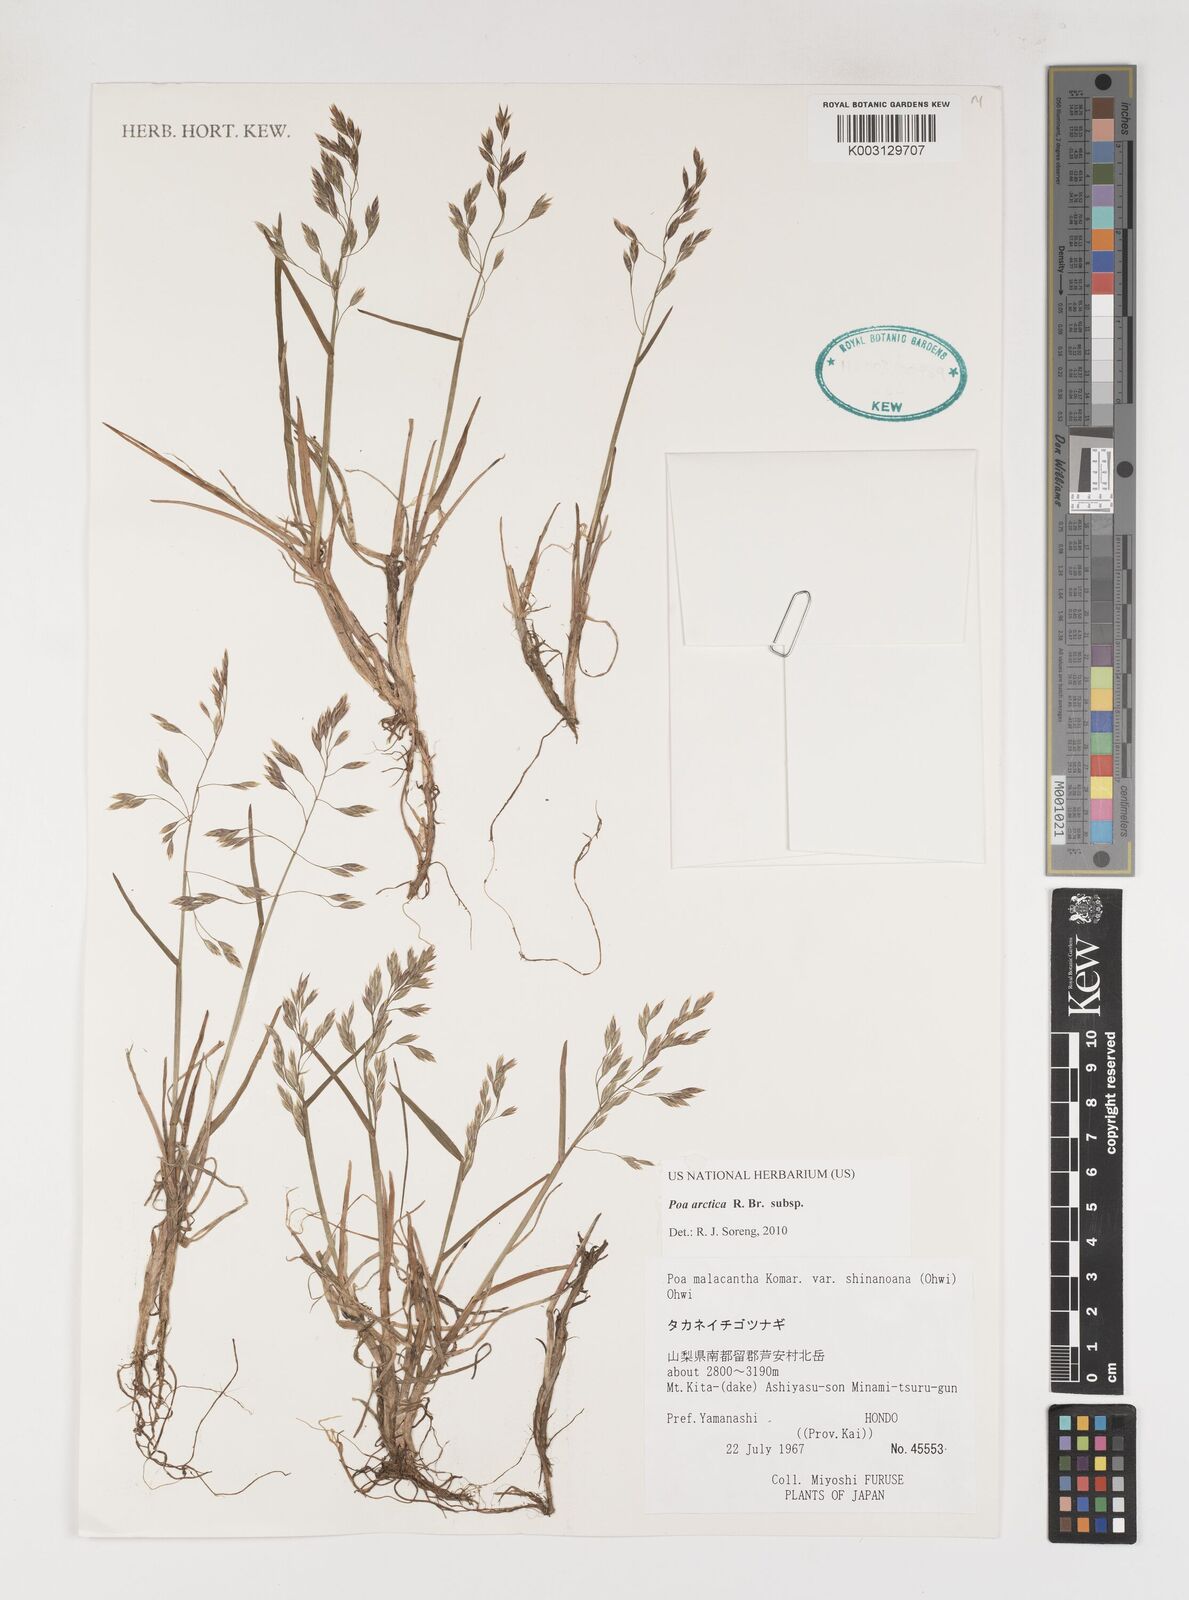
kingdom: Plantae
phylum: Tracheophyta
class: Liliopsida
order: Poales
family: Poaceae
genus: Poa
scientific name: Poa arctica
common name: Arctic bluegrass
